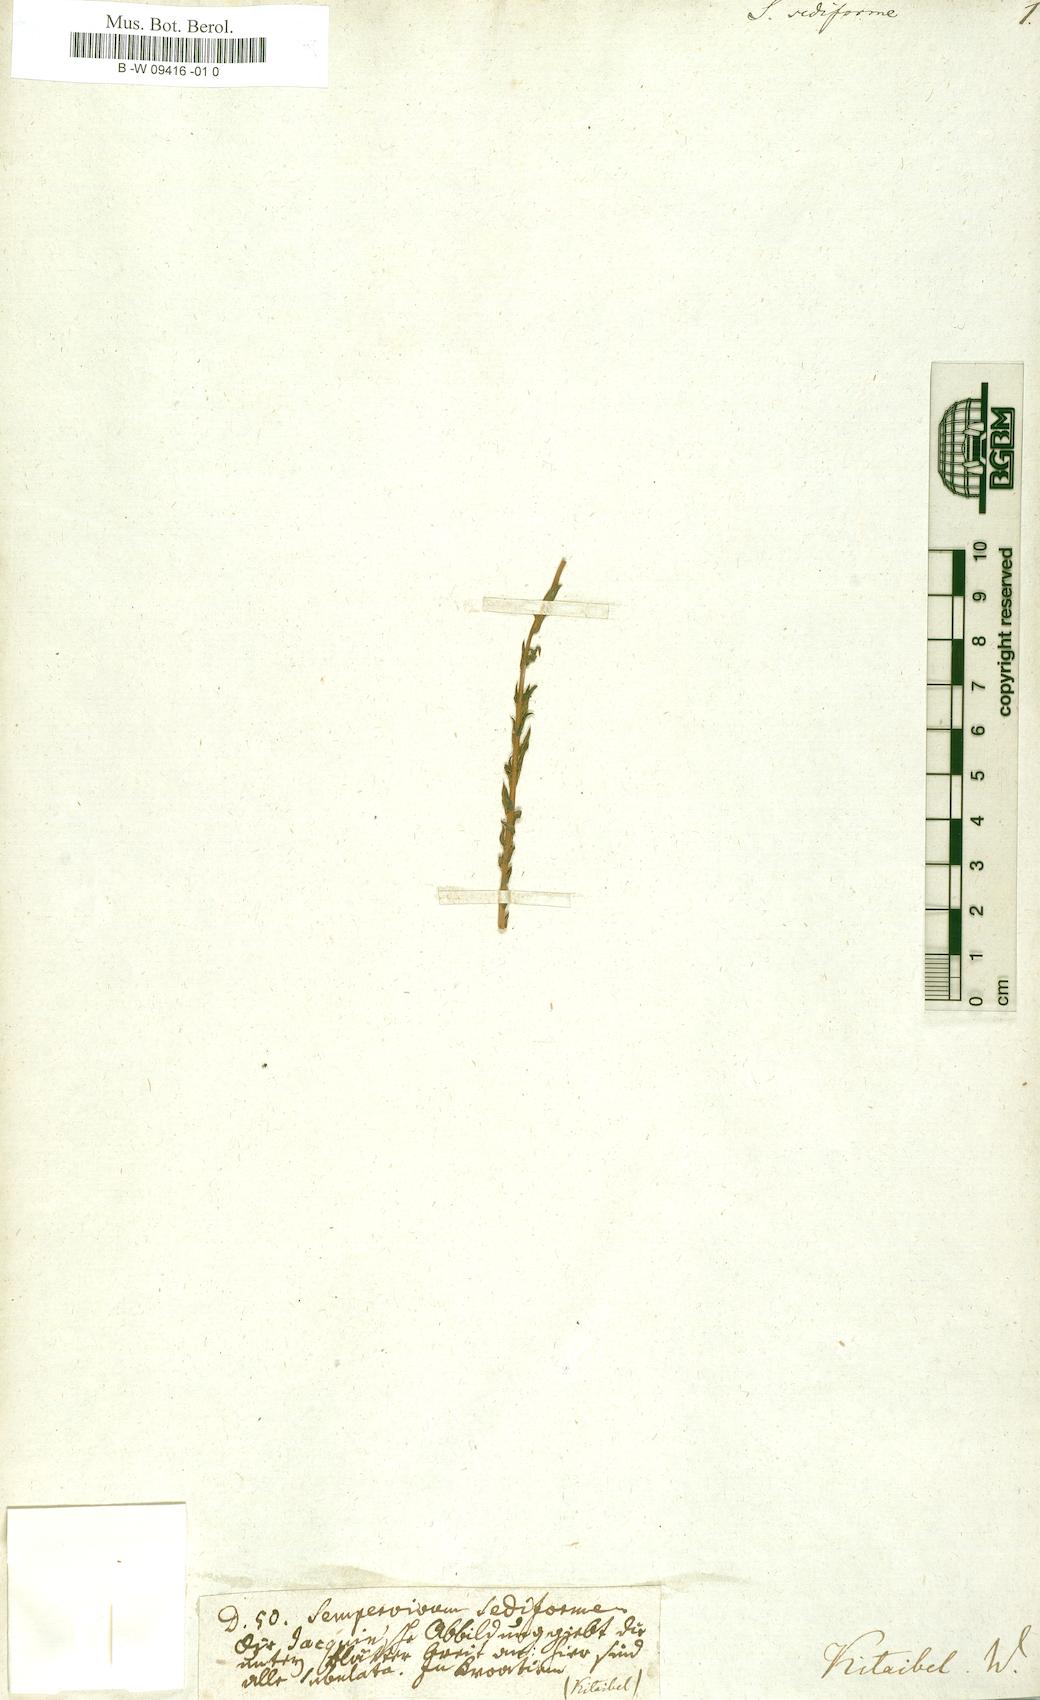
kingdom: Plantae
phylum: Tracheophyta
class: Magnoliopsida
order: Saxifragales
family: Crassulaceae
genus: Petrosedum
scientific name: Petrosedum sediforme
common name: Pale stonecrop
